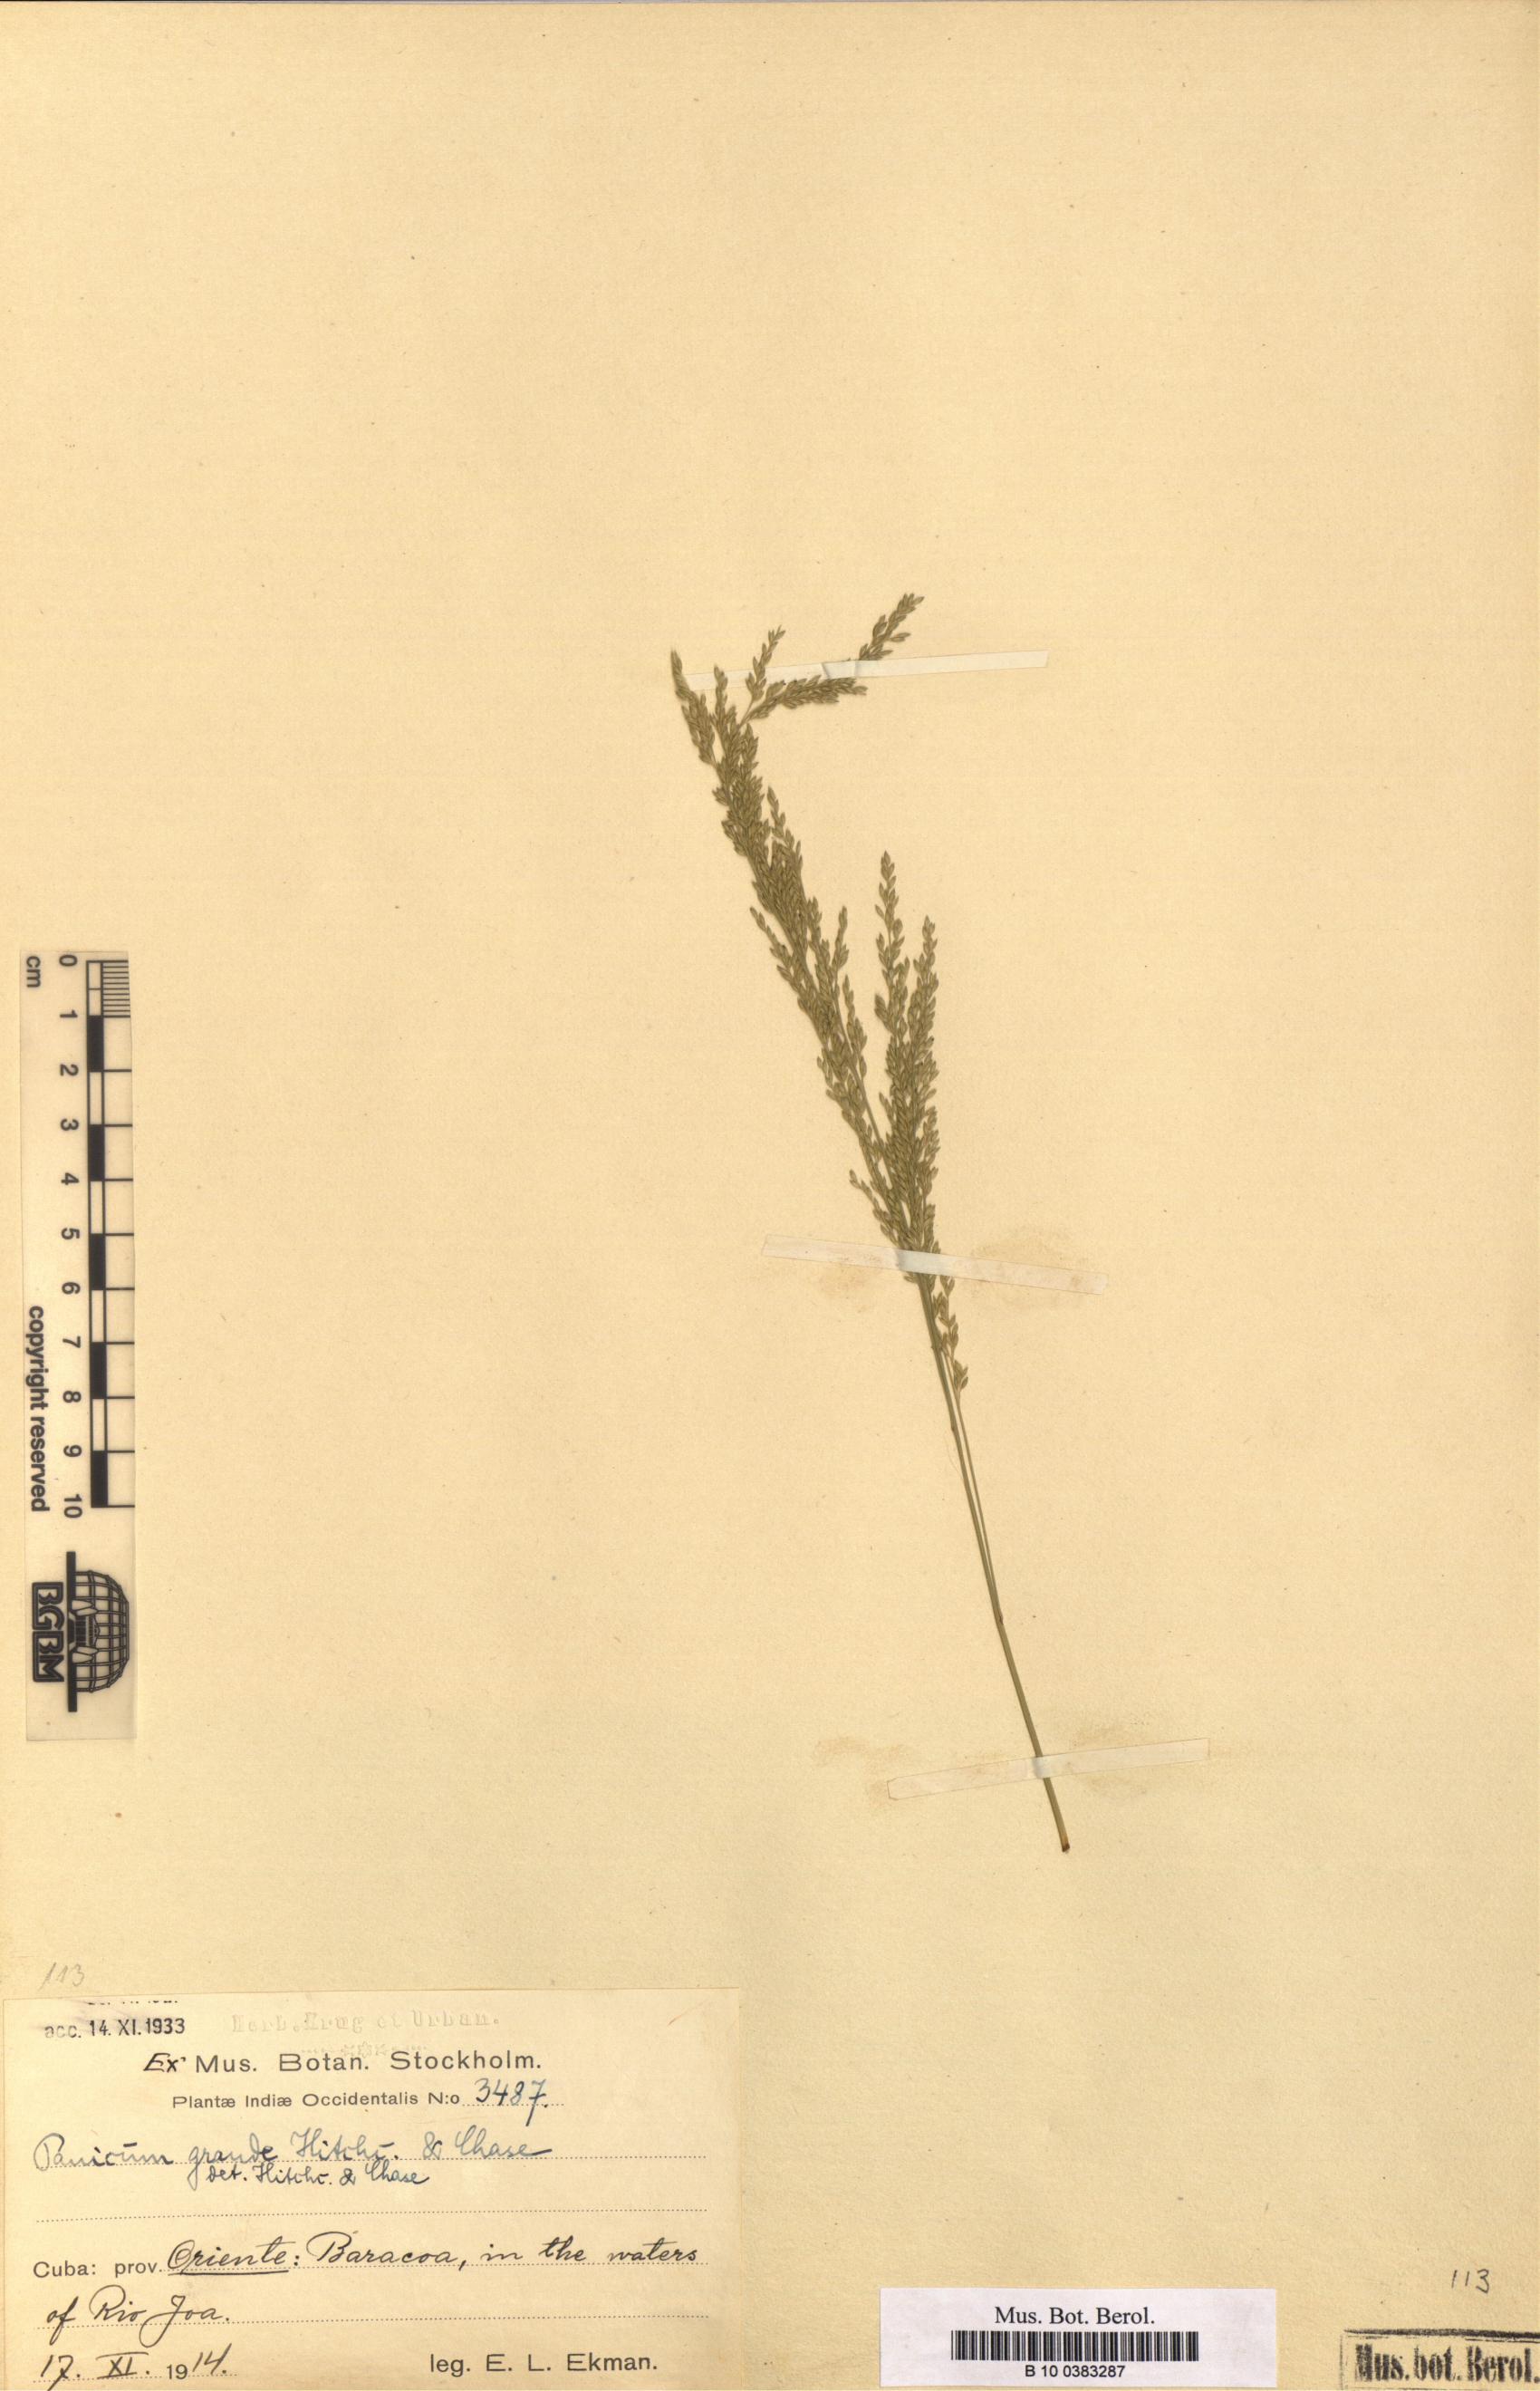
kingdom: Plantae
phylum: Tracheophyta
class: Liliopsida
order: Poales
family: Poaceae
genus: Hymenachne
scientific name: Hymenachne grandis
